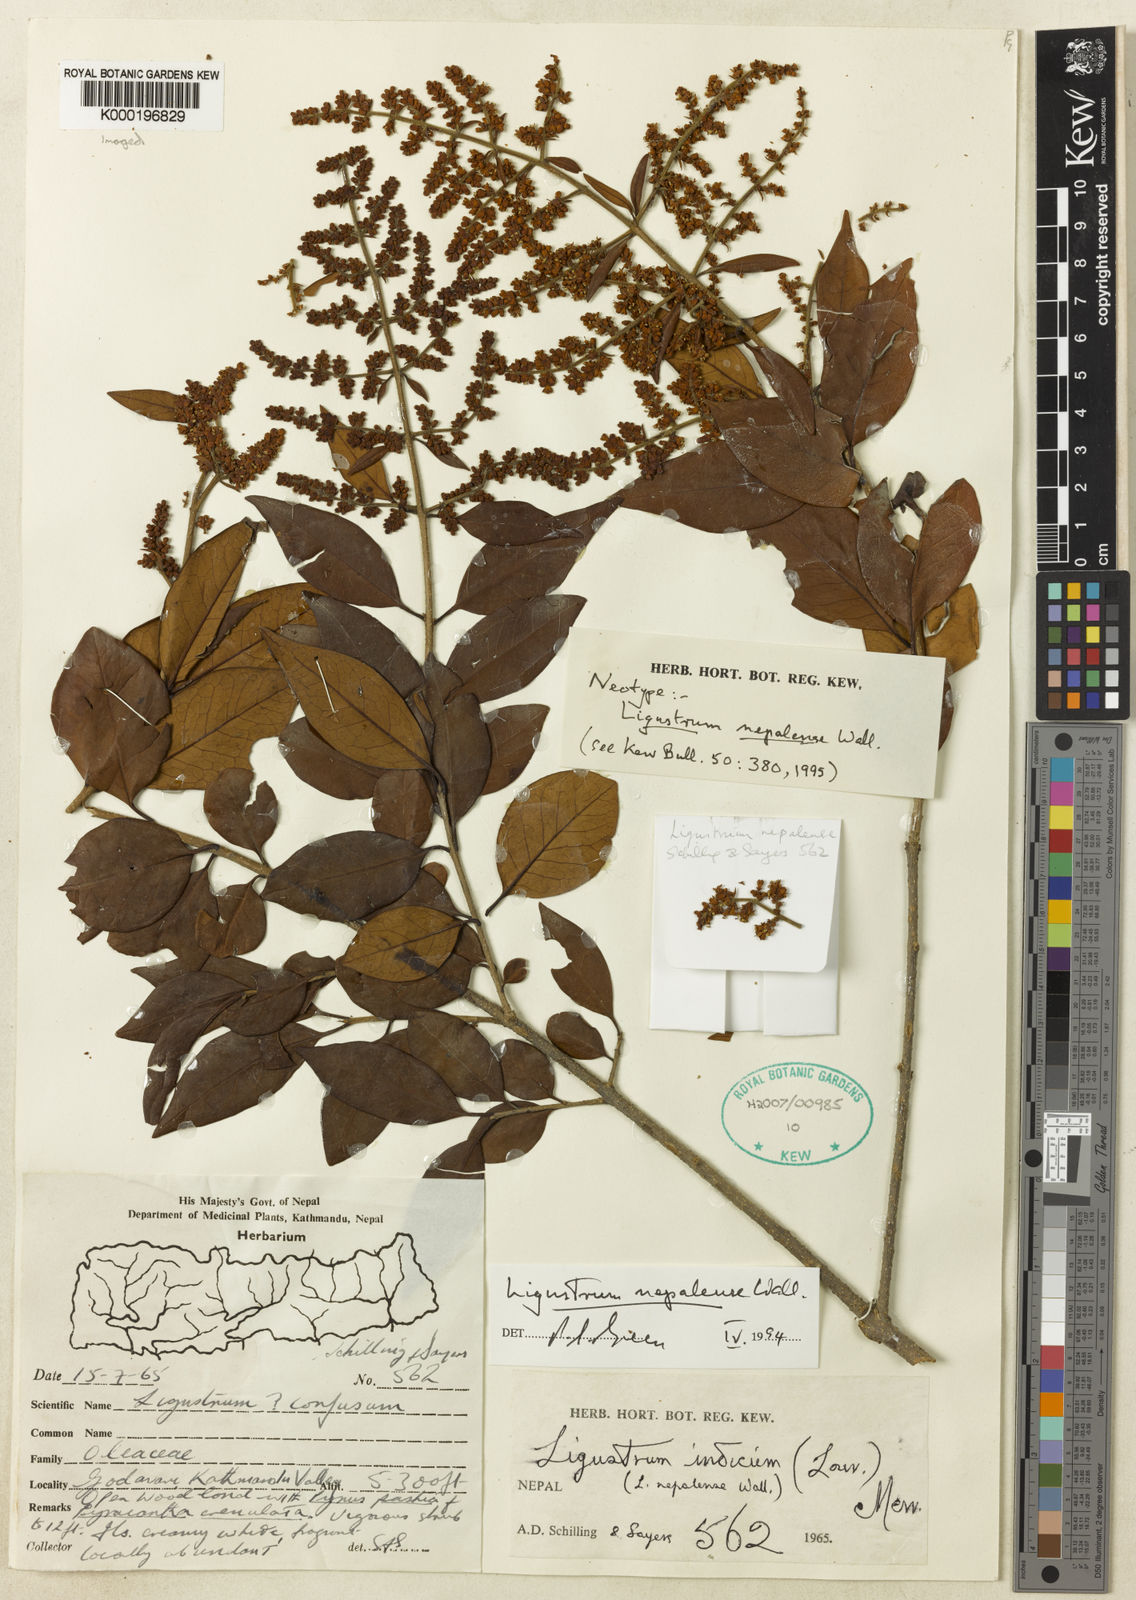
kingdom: Plantae
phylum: Tracheophyta
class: Magnoliopsida
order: Lamiales
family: Oleaceae
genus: Ligustrum
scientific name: Ligustrum nepalense
